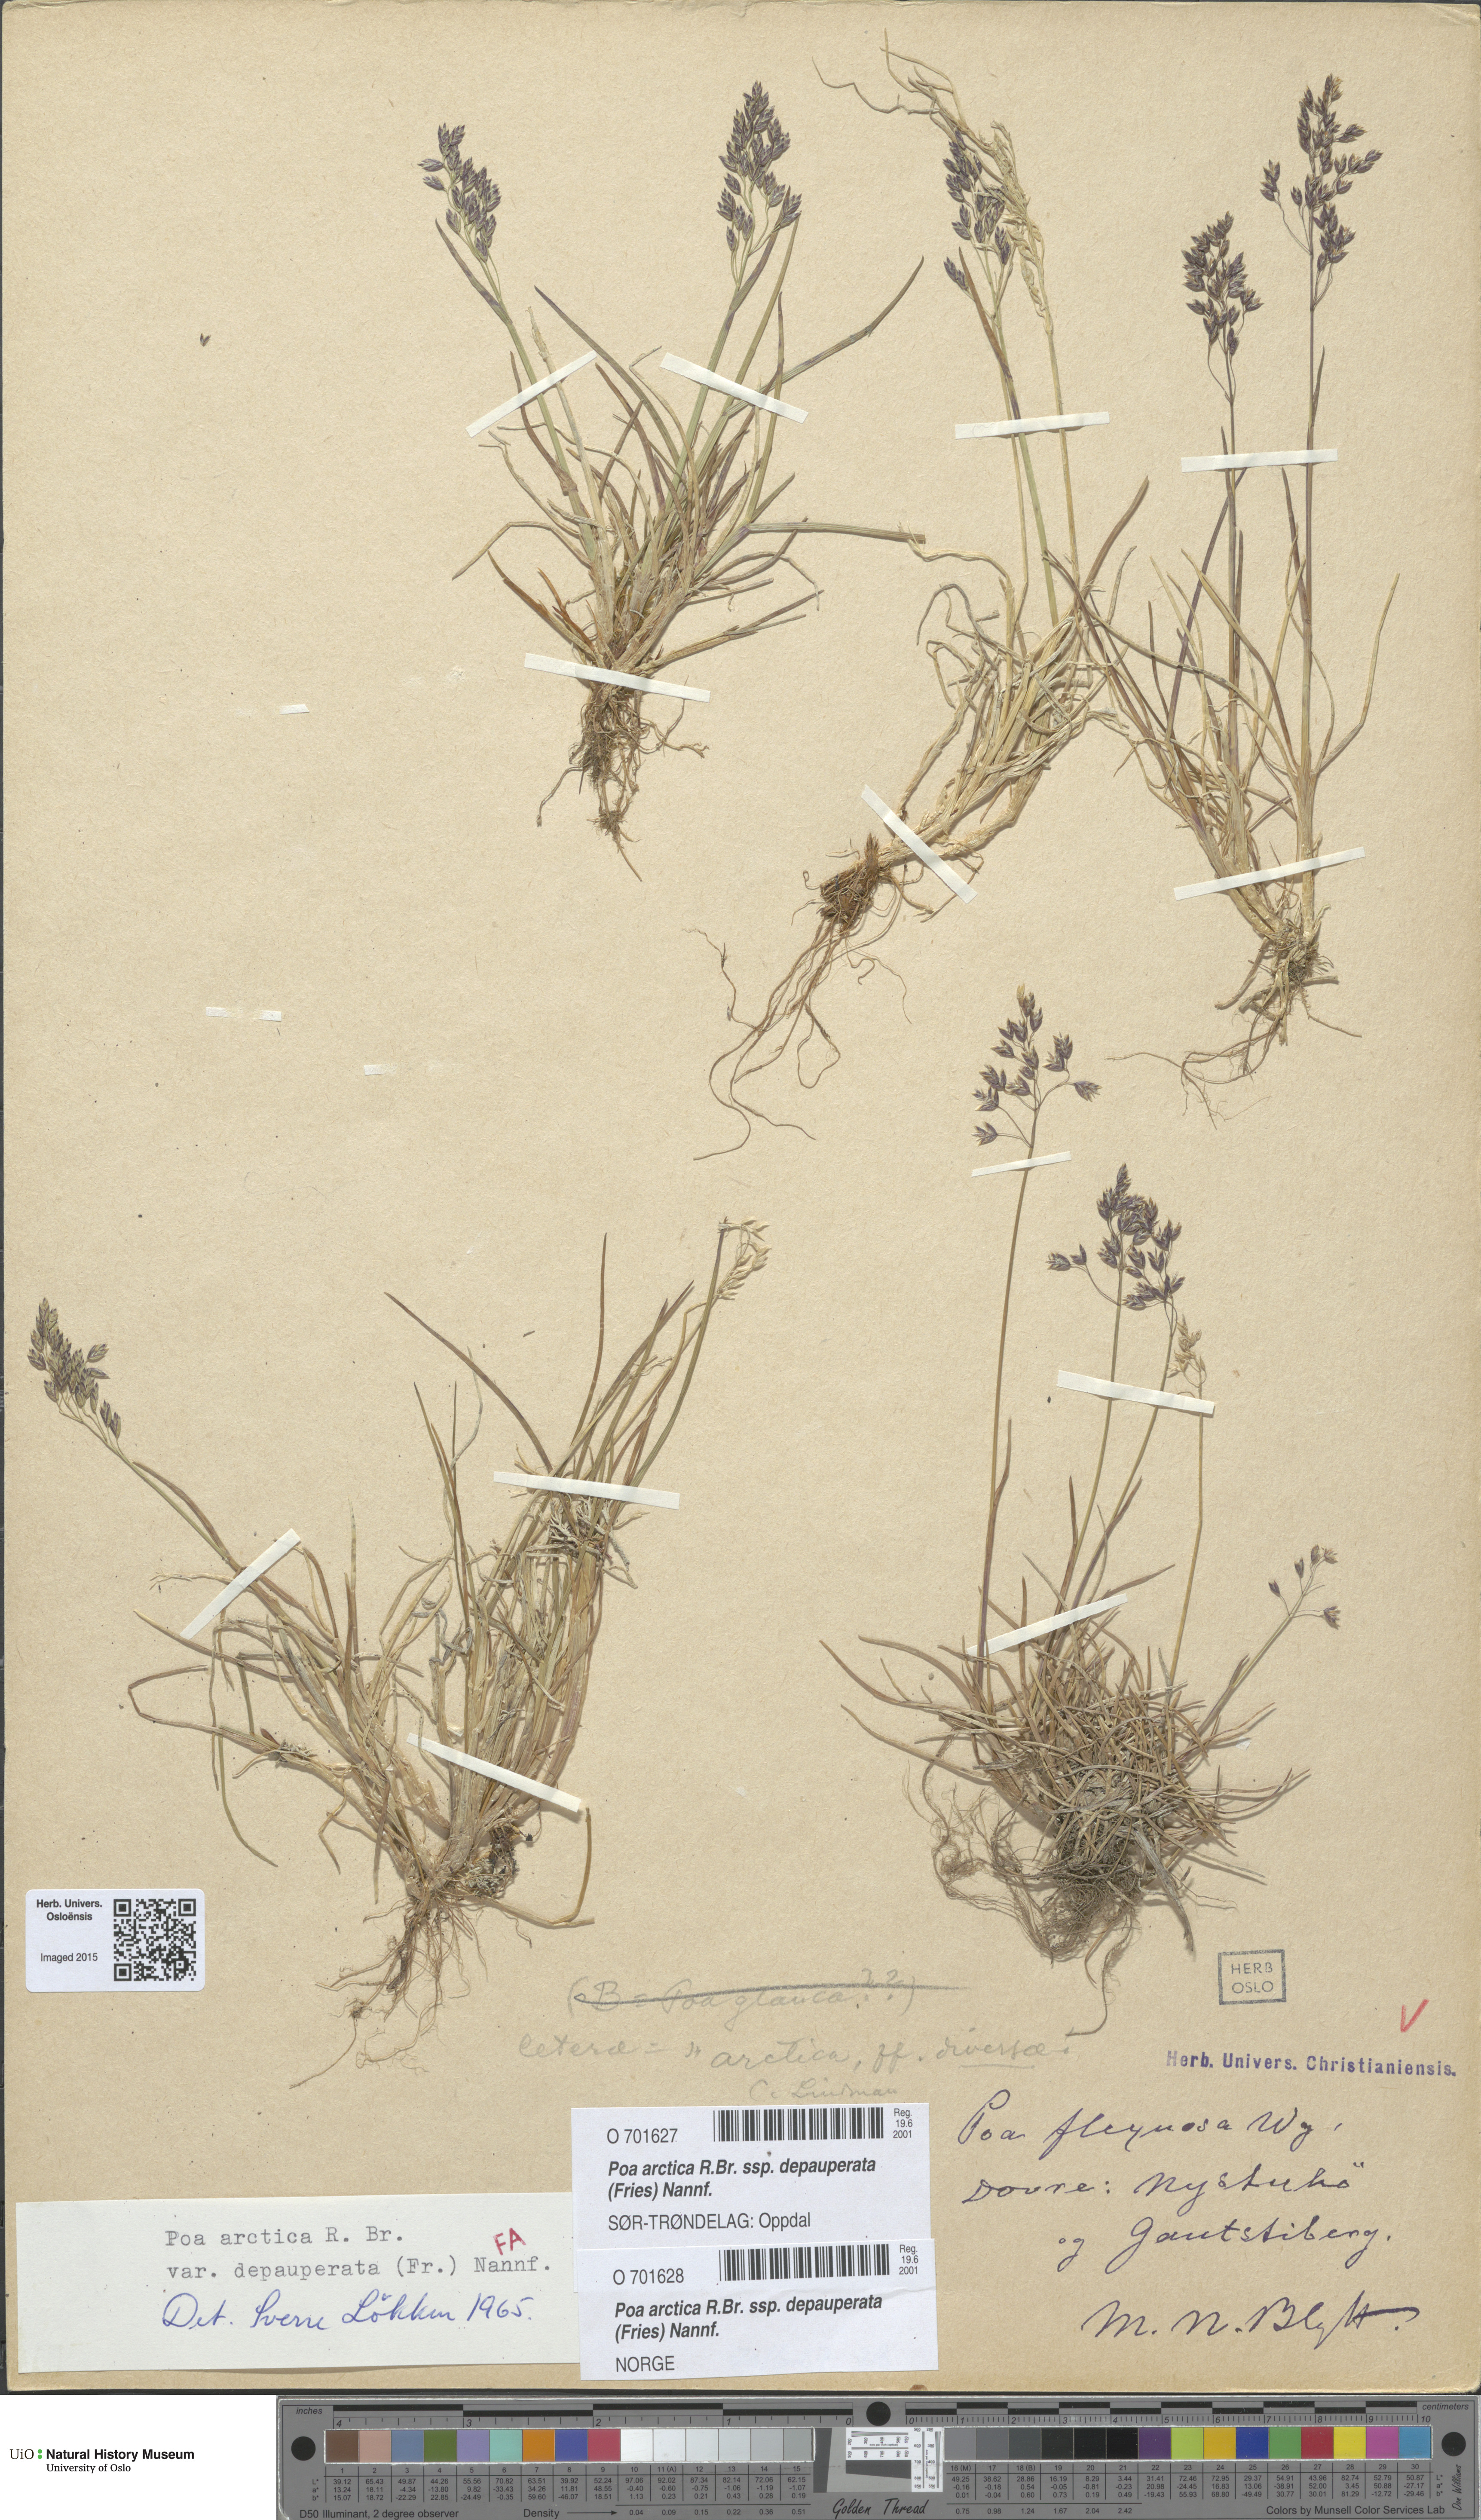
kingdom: Plantae
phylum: Tracheophyta
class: Liliopsida
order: Poales
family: Poaceae
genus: Poa
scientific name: Poa arctica
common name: Arctic bluegrass
